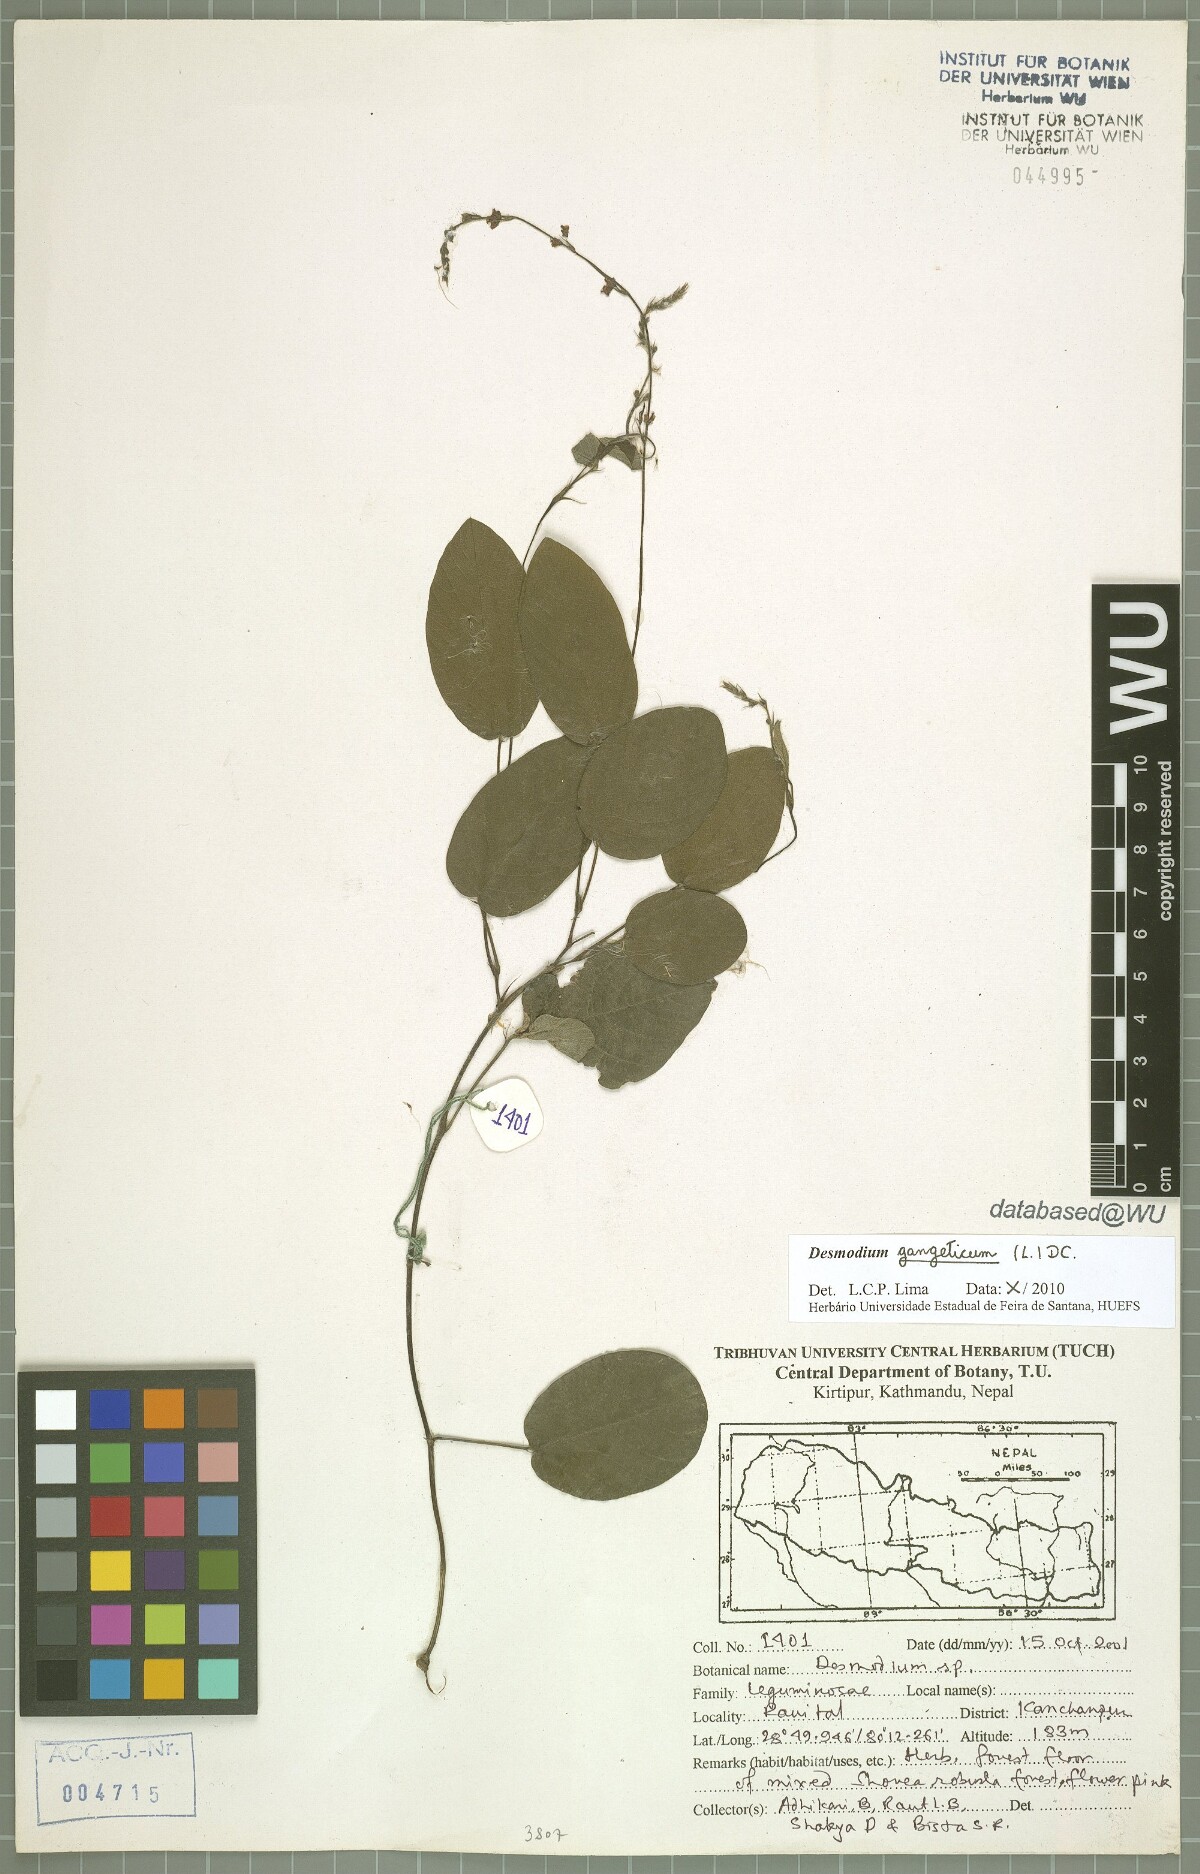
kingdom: Plantae
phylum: Tracheophyta
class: Magnoliopsida
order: Fabales
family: Fabaceae
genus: Pleurolobus
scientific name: Pleurolobus gangeticus
